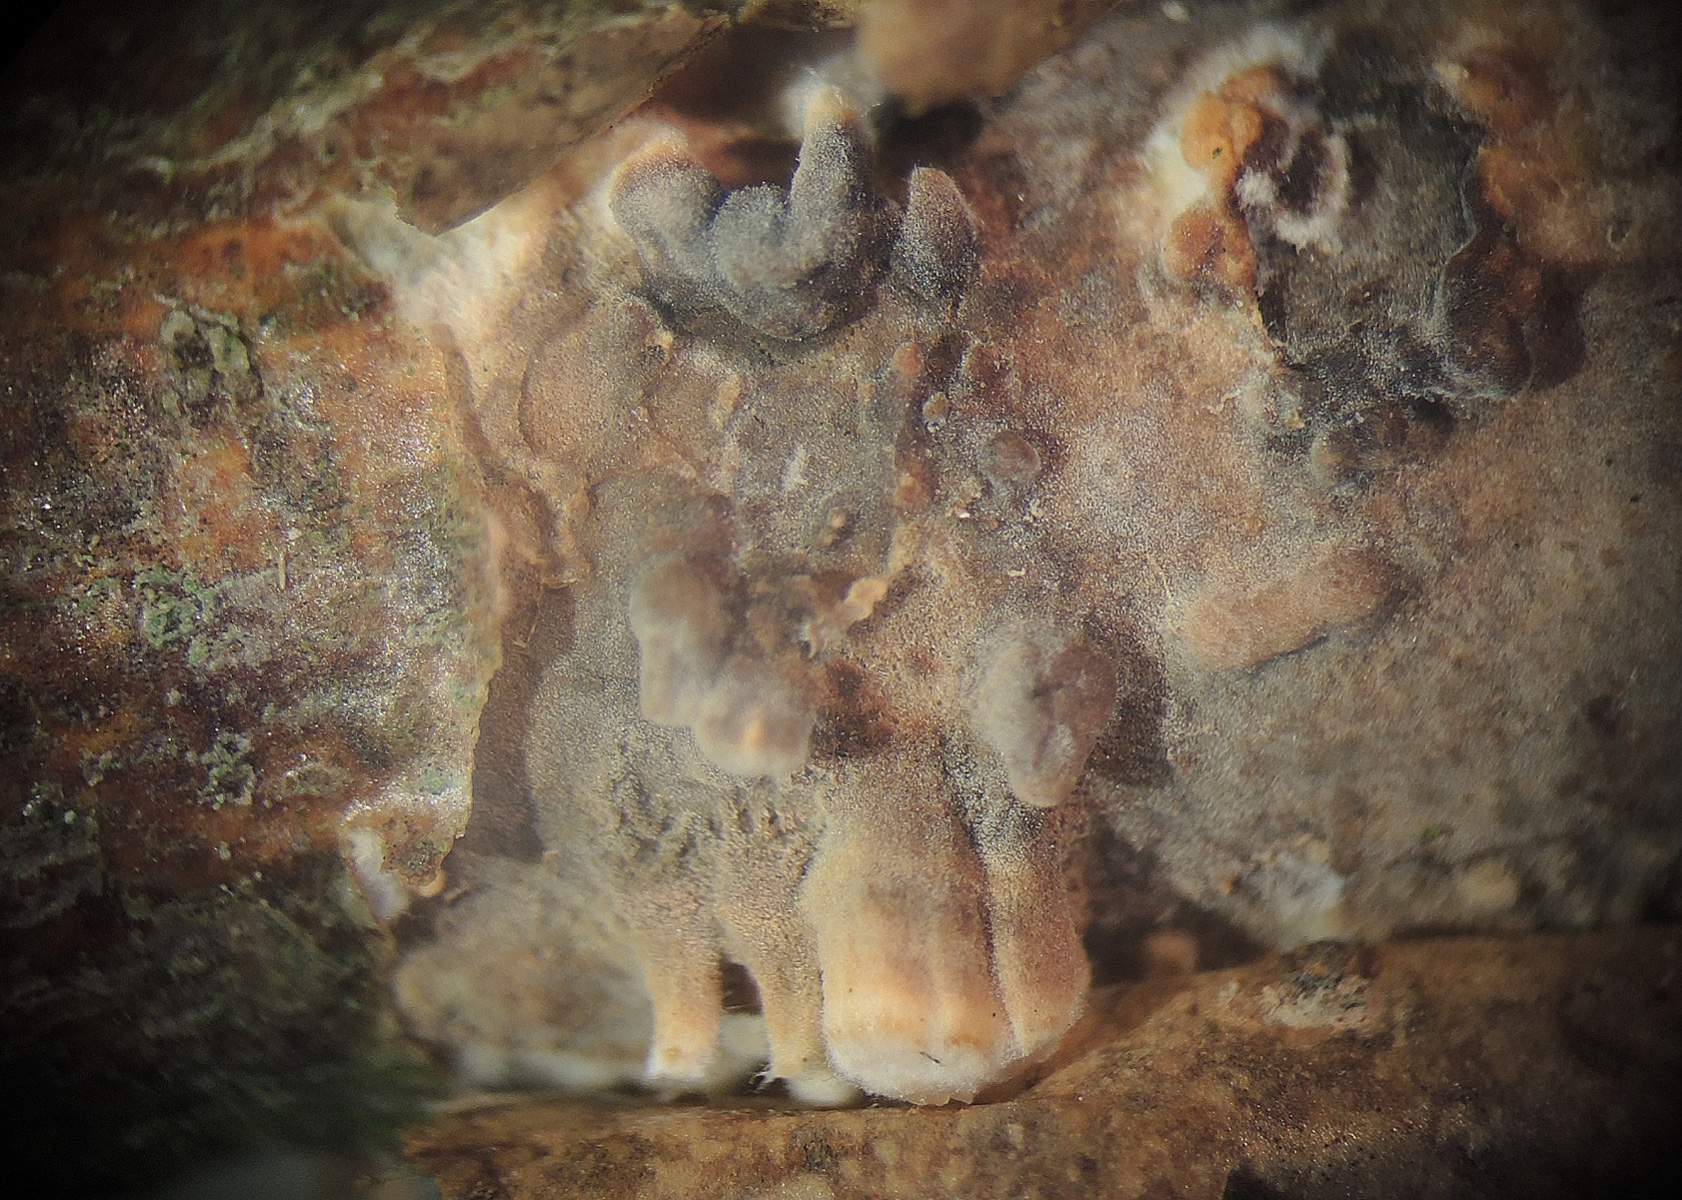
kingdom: Fungi
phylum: Basidiomycota
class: Agaricomycetes
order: Russulales
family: Peniophoraceae
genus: Peniophora
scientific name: Peniophora laeta
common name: tandet voksskind
